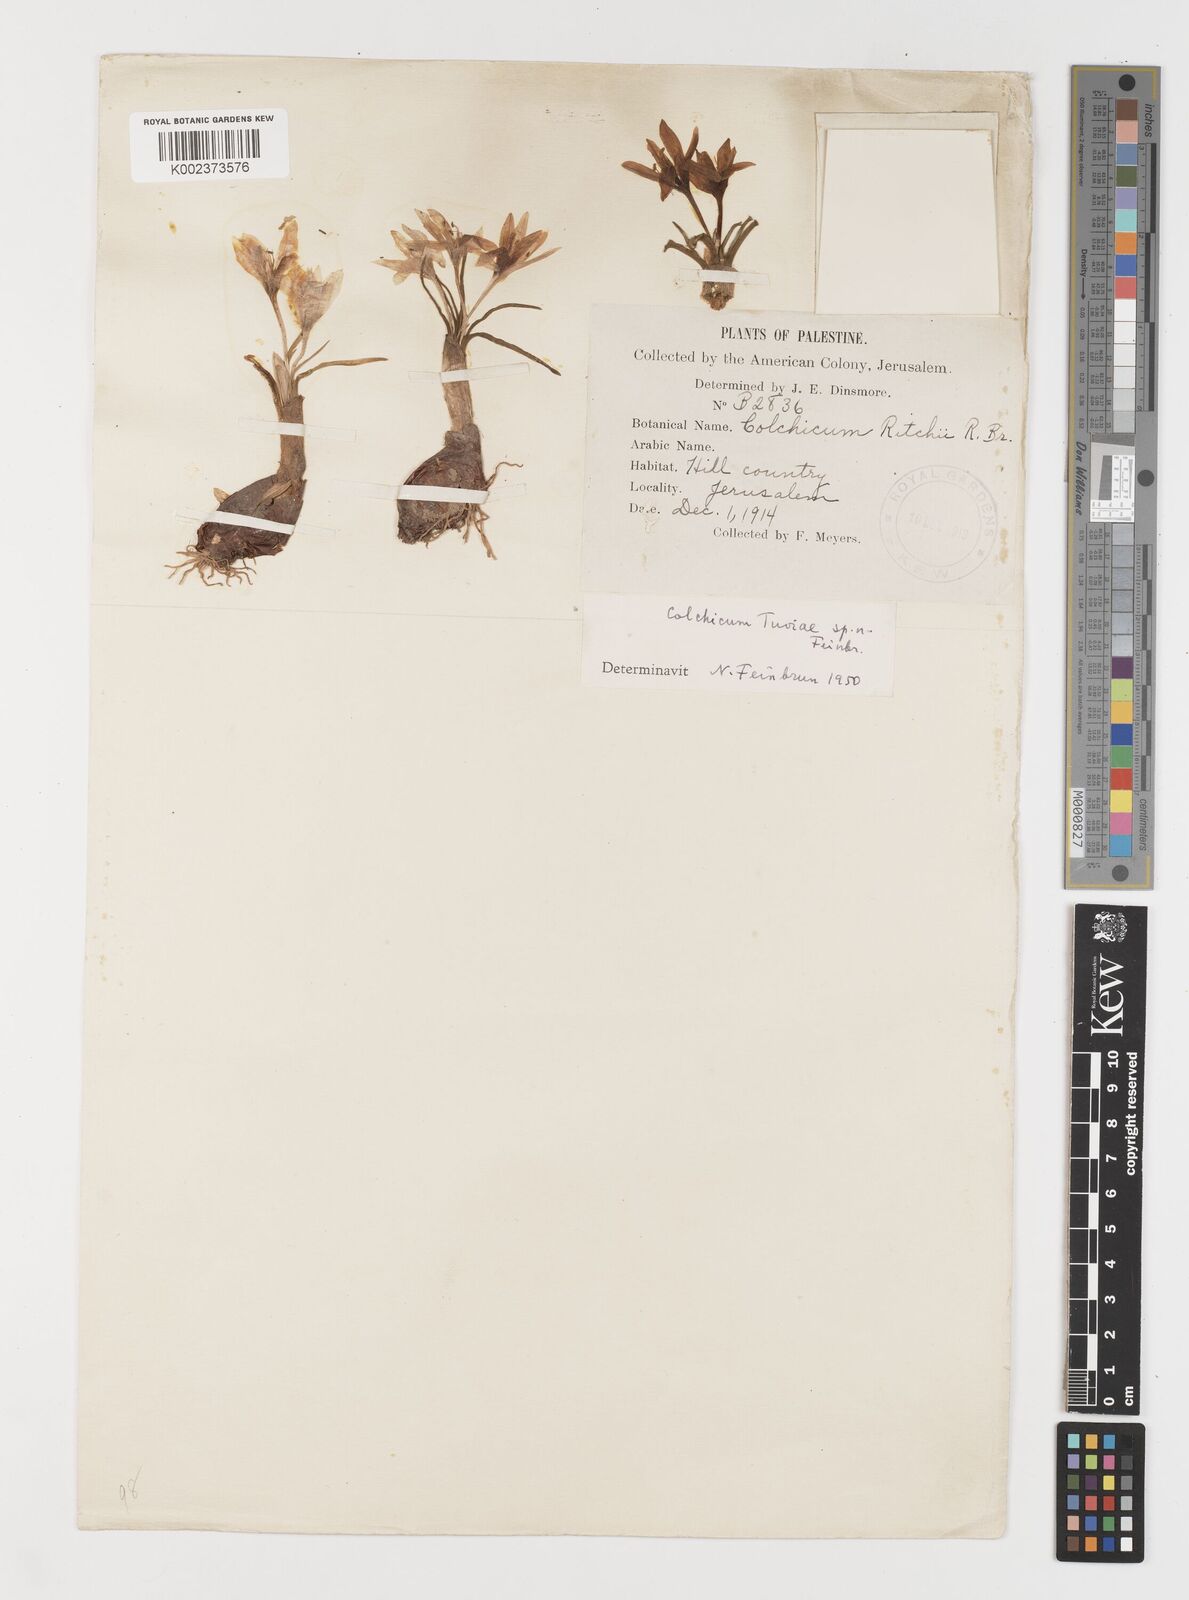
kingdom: Plantae
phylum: Tracheophyta
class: Liliopsida
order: Liliales
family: Colchicaceae
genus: Colchicum
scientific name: Colchicum tuviae
